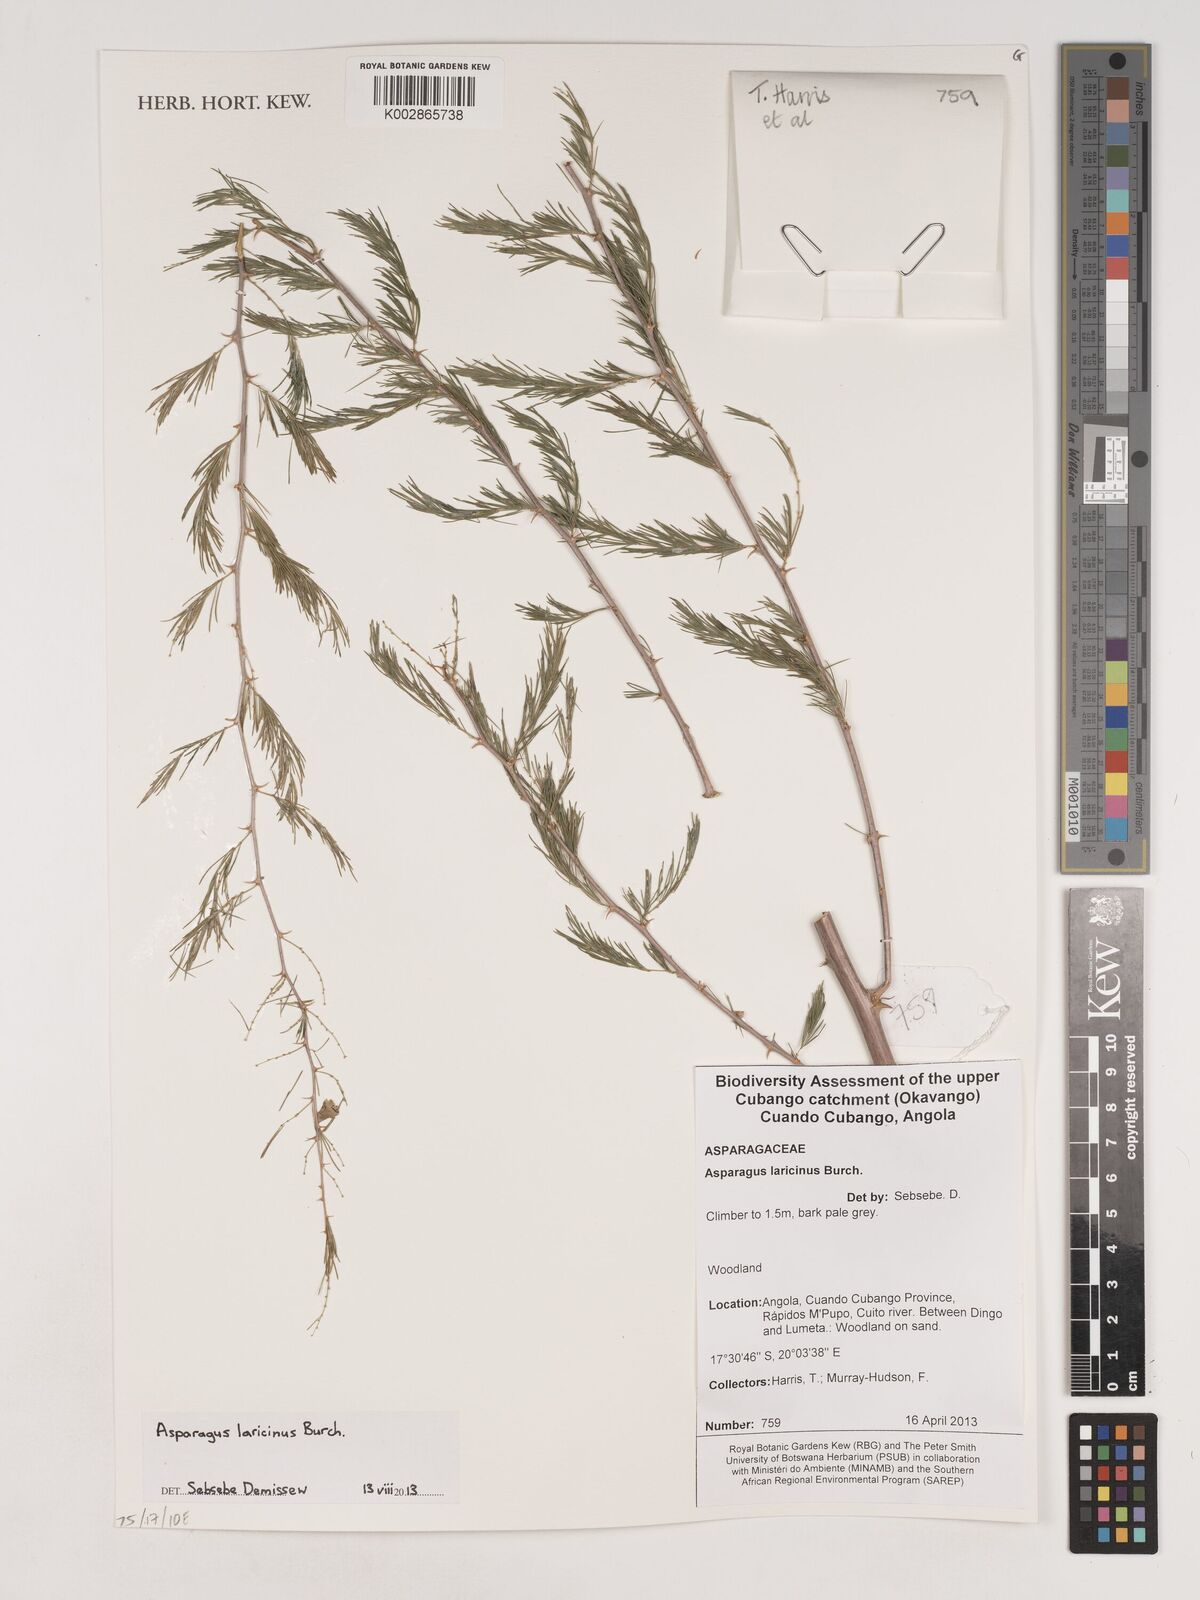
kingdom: Plantae
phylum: Tracheophyta
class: Liliopsida
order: Asparagales
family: Asparagaceae
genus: Asparagus
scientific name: Asparagus laricinus
